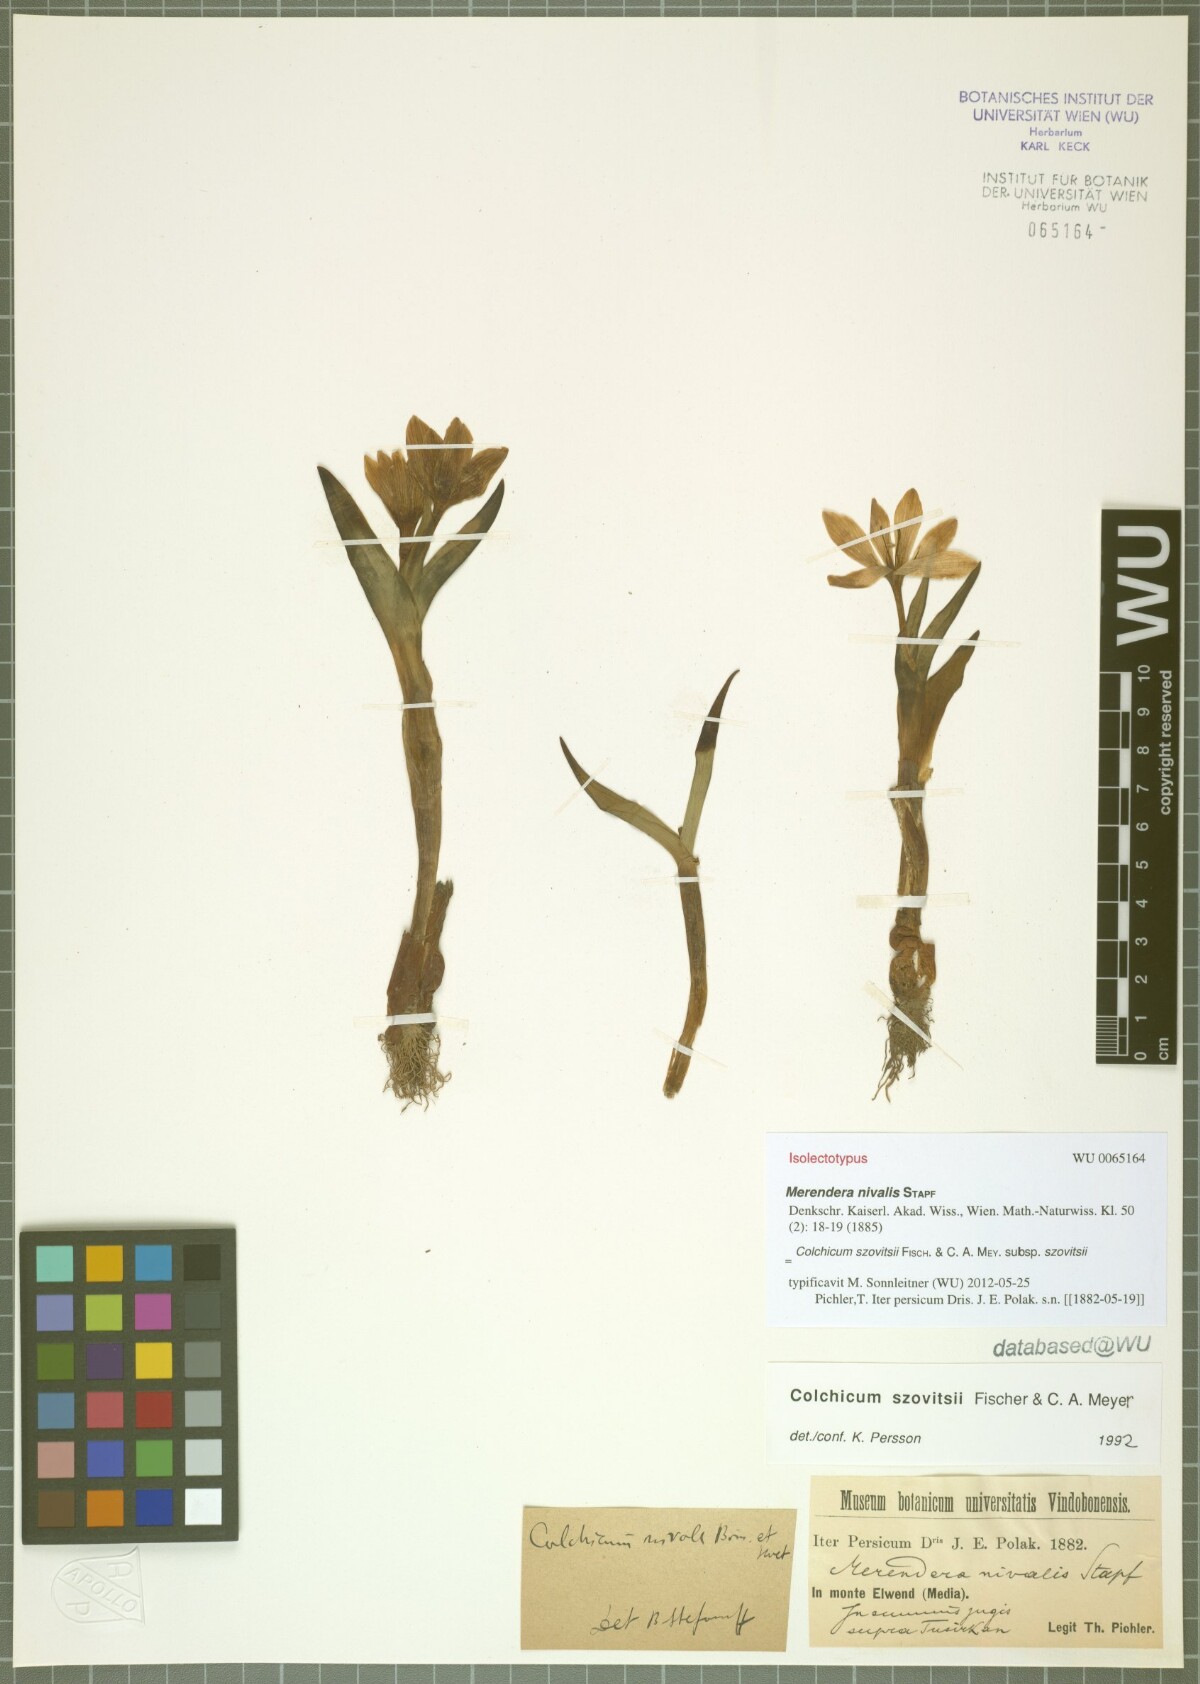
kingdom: Plantae
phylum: Tracheophyta
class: Liliopsida
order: Liliales
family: Colchicaceae
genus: Colchicum
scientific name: Colchicum szovitsii
